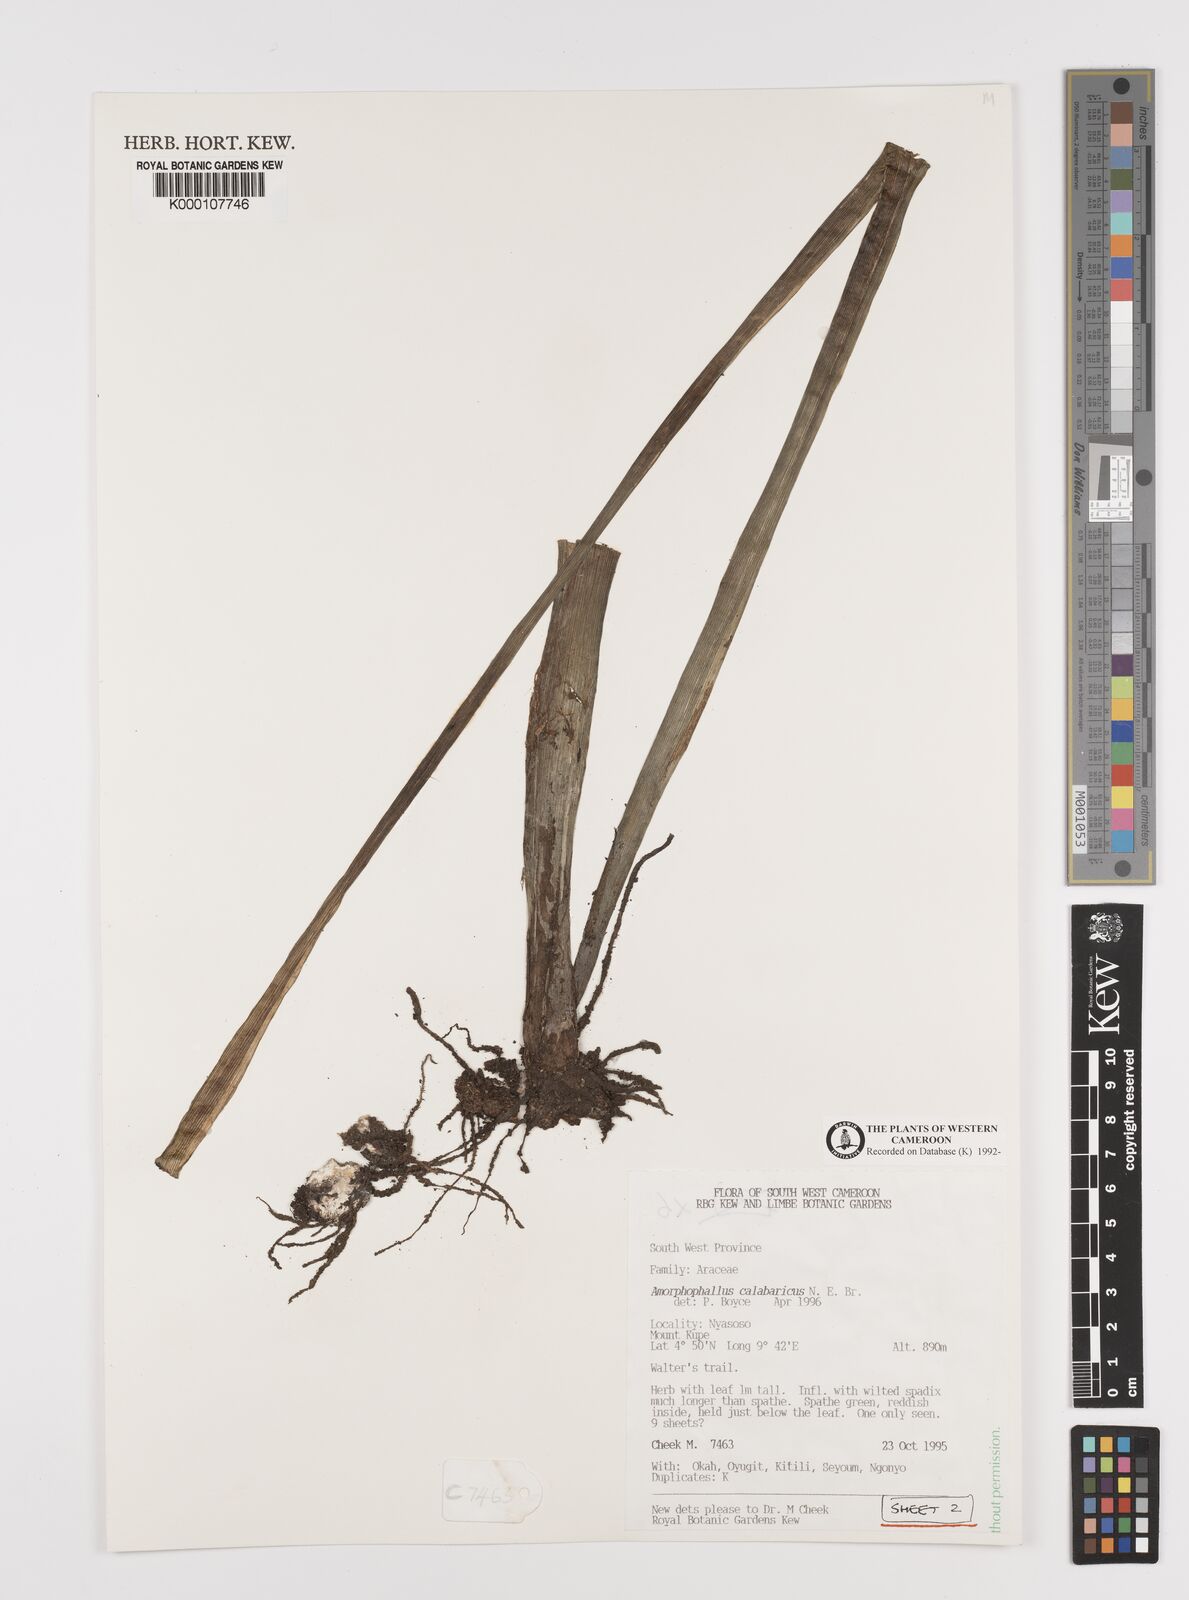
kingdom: Plantae
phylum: Tracheophyta
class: Liliopsida
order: Alismatales
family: Araceae
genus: Amorphophallus
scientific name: Amorphophallus calabaricus
